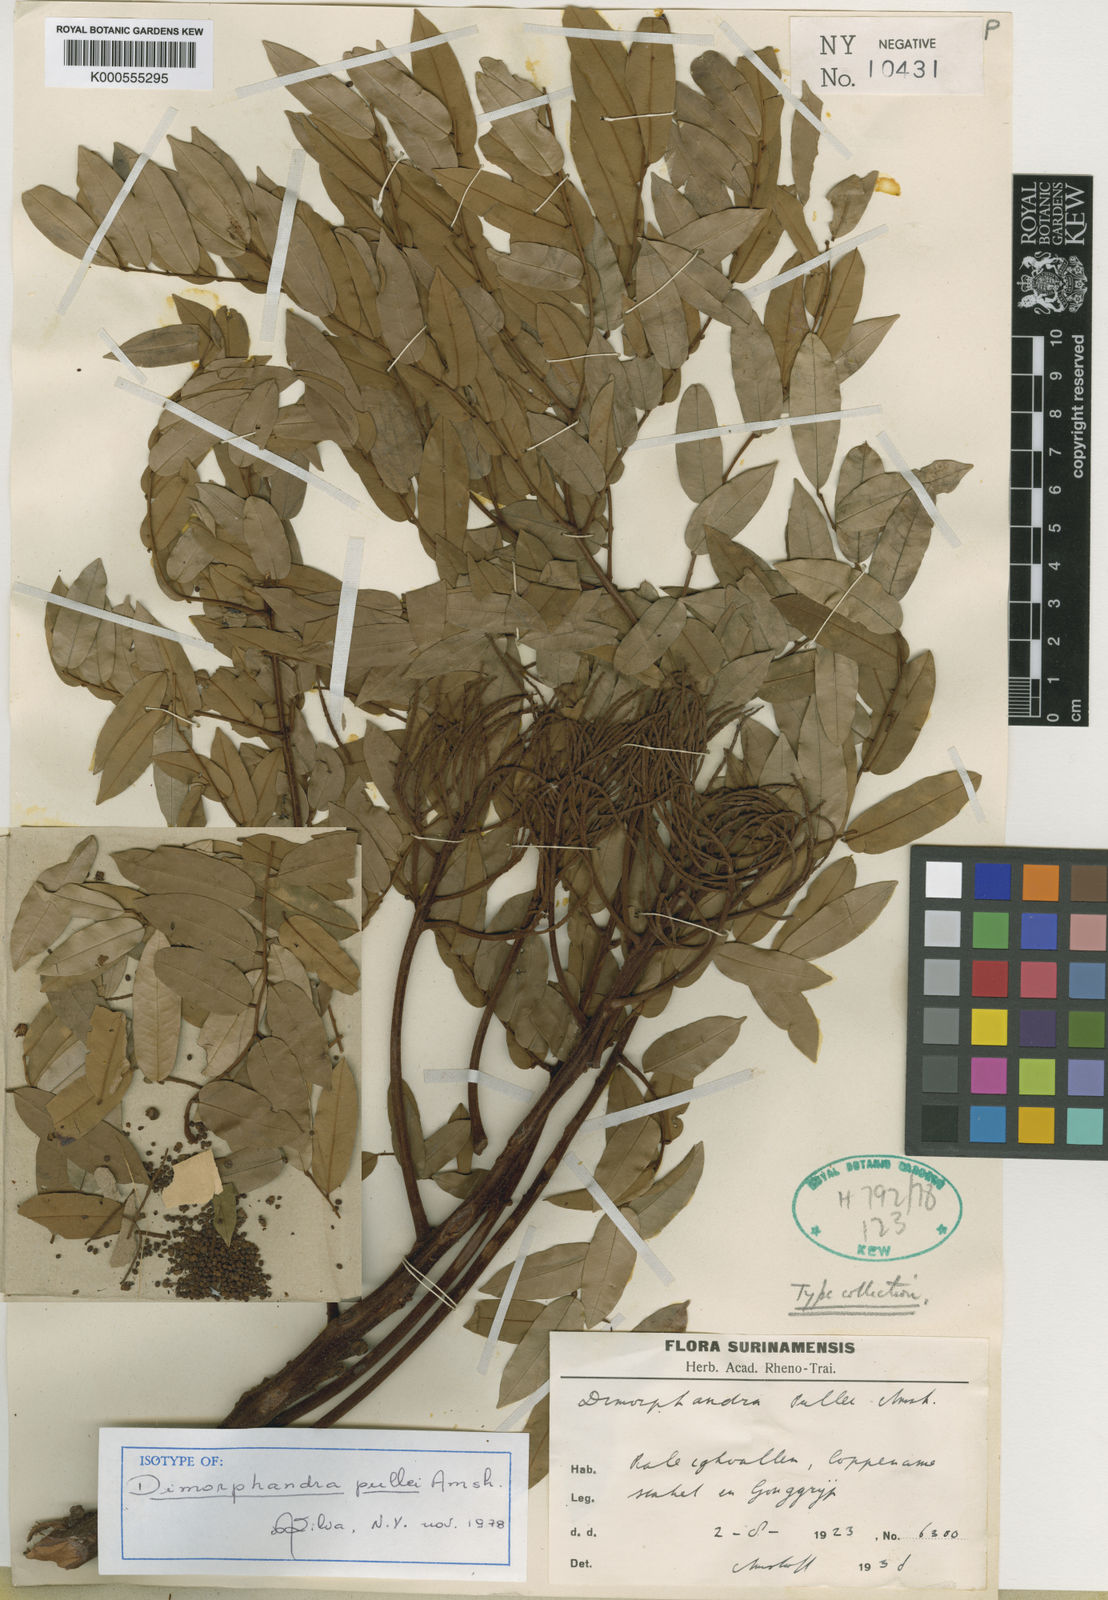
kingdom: Plantae
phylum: Tracheophyta
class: Magnoliopsida
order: Fabales
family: Fabaceae
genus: Dimorphandra
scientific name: Dimorphandra pullei
